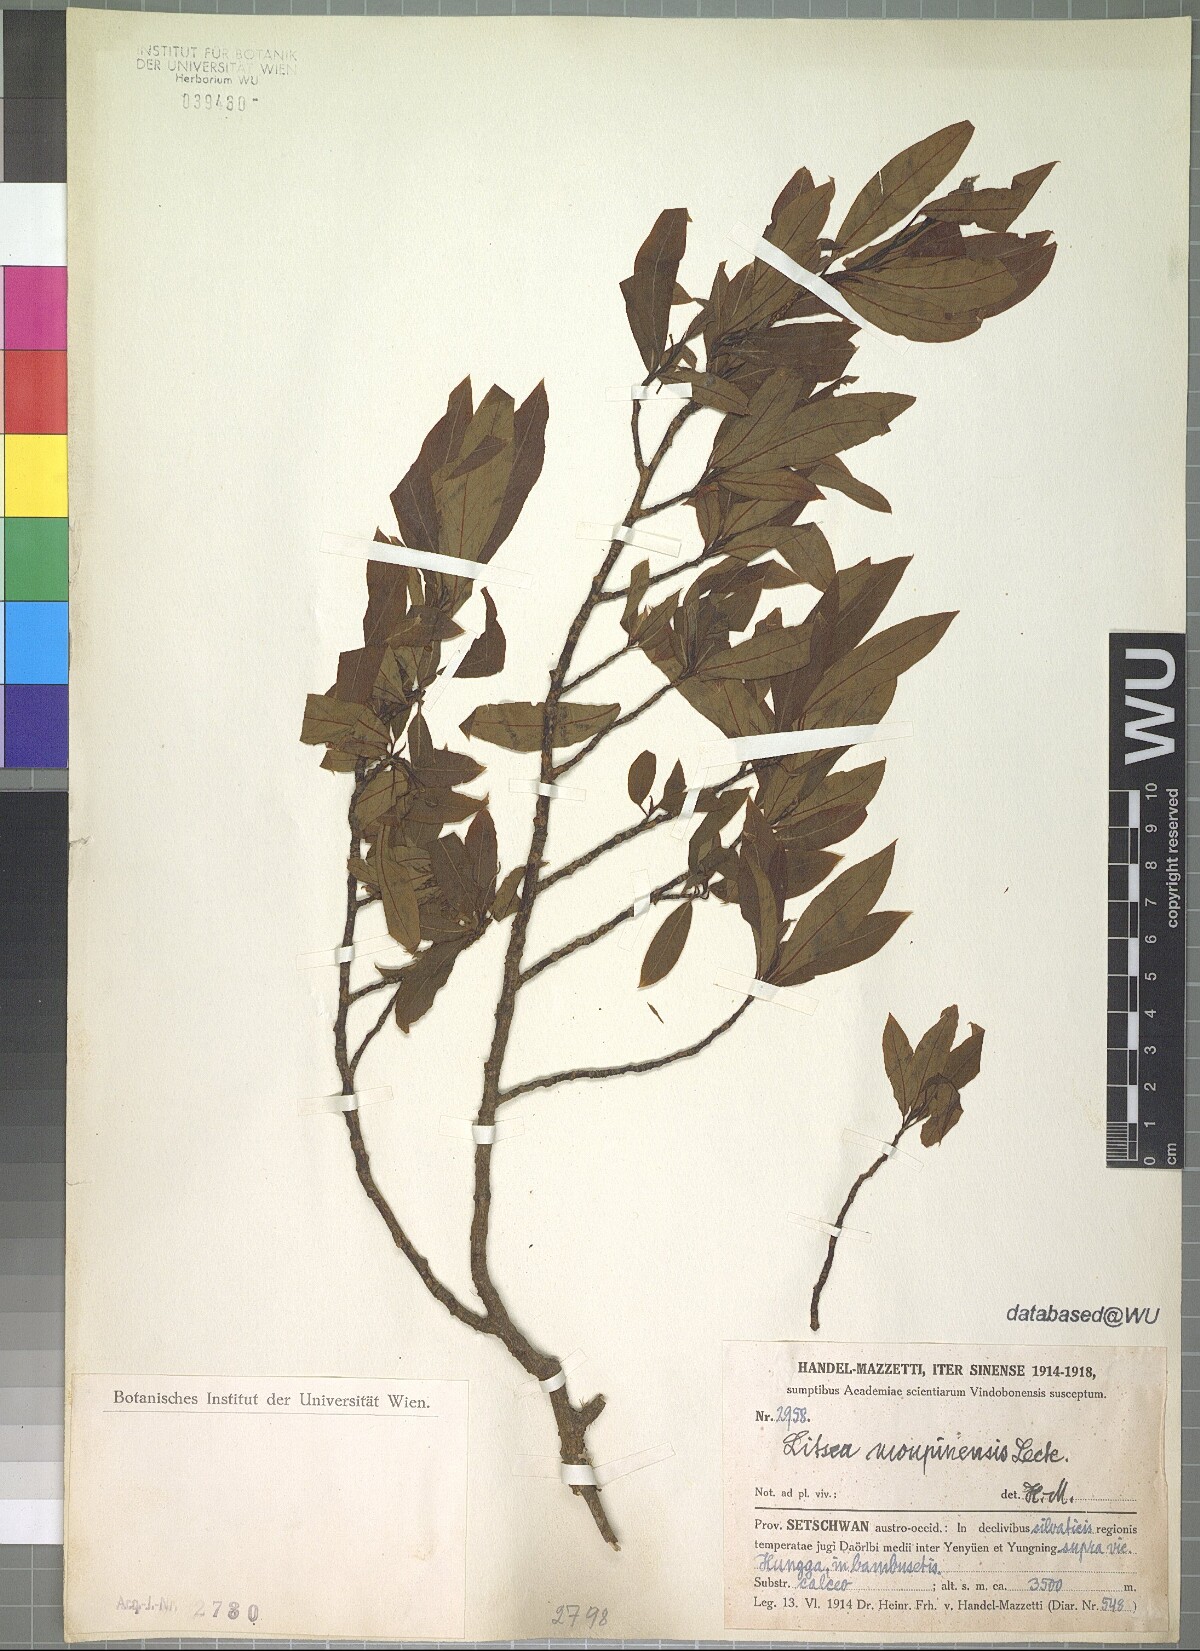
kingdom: Plantae
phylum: Tracheophyta
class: Magnoliopsida
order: Laurales
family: Lauraceae
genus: Litsea
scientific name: Litsea moupinensis
